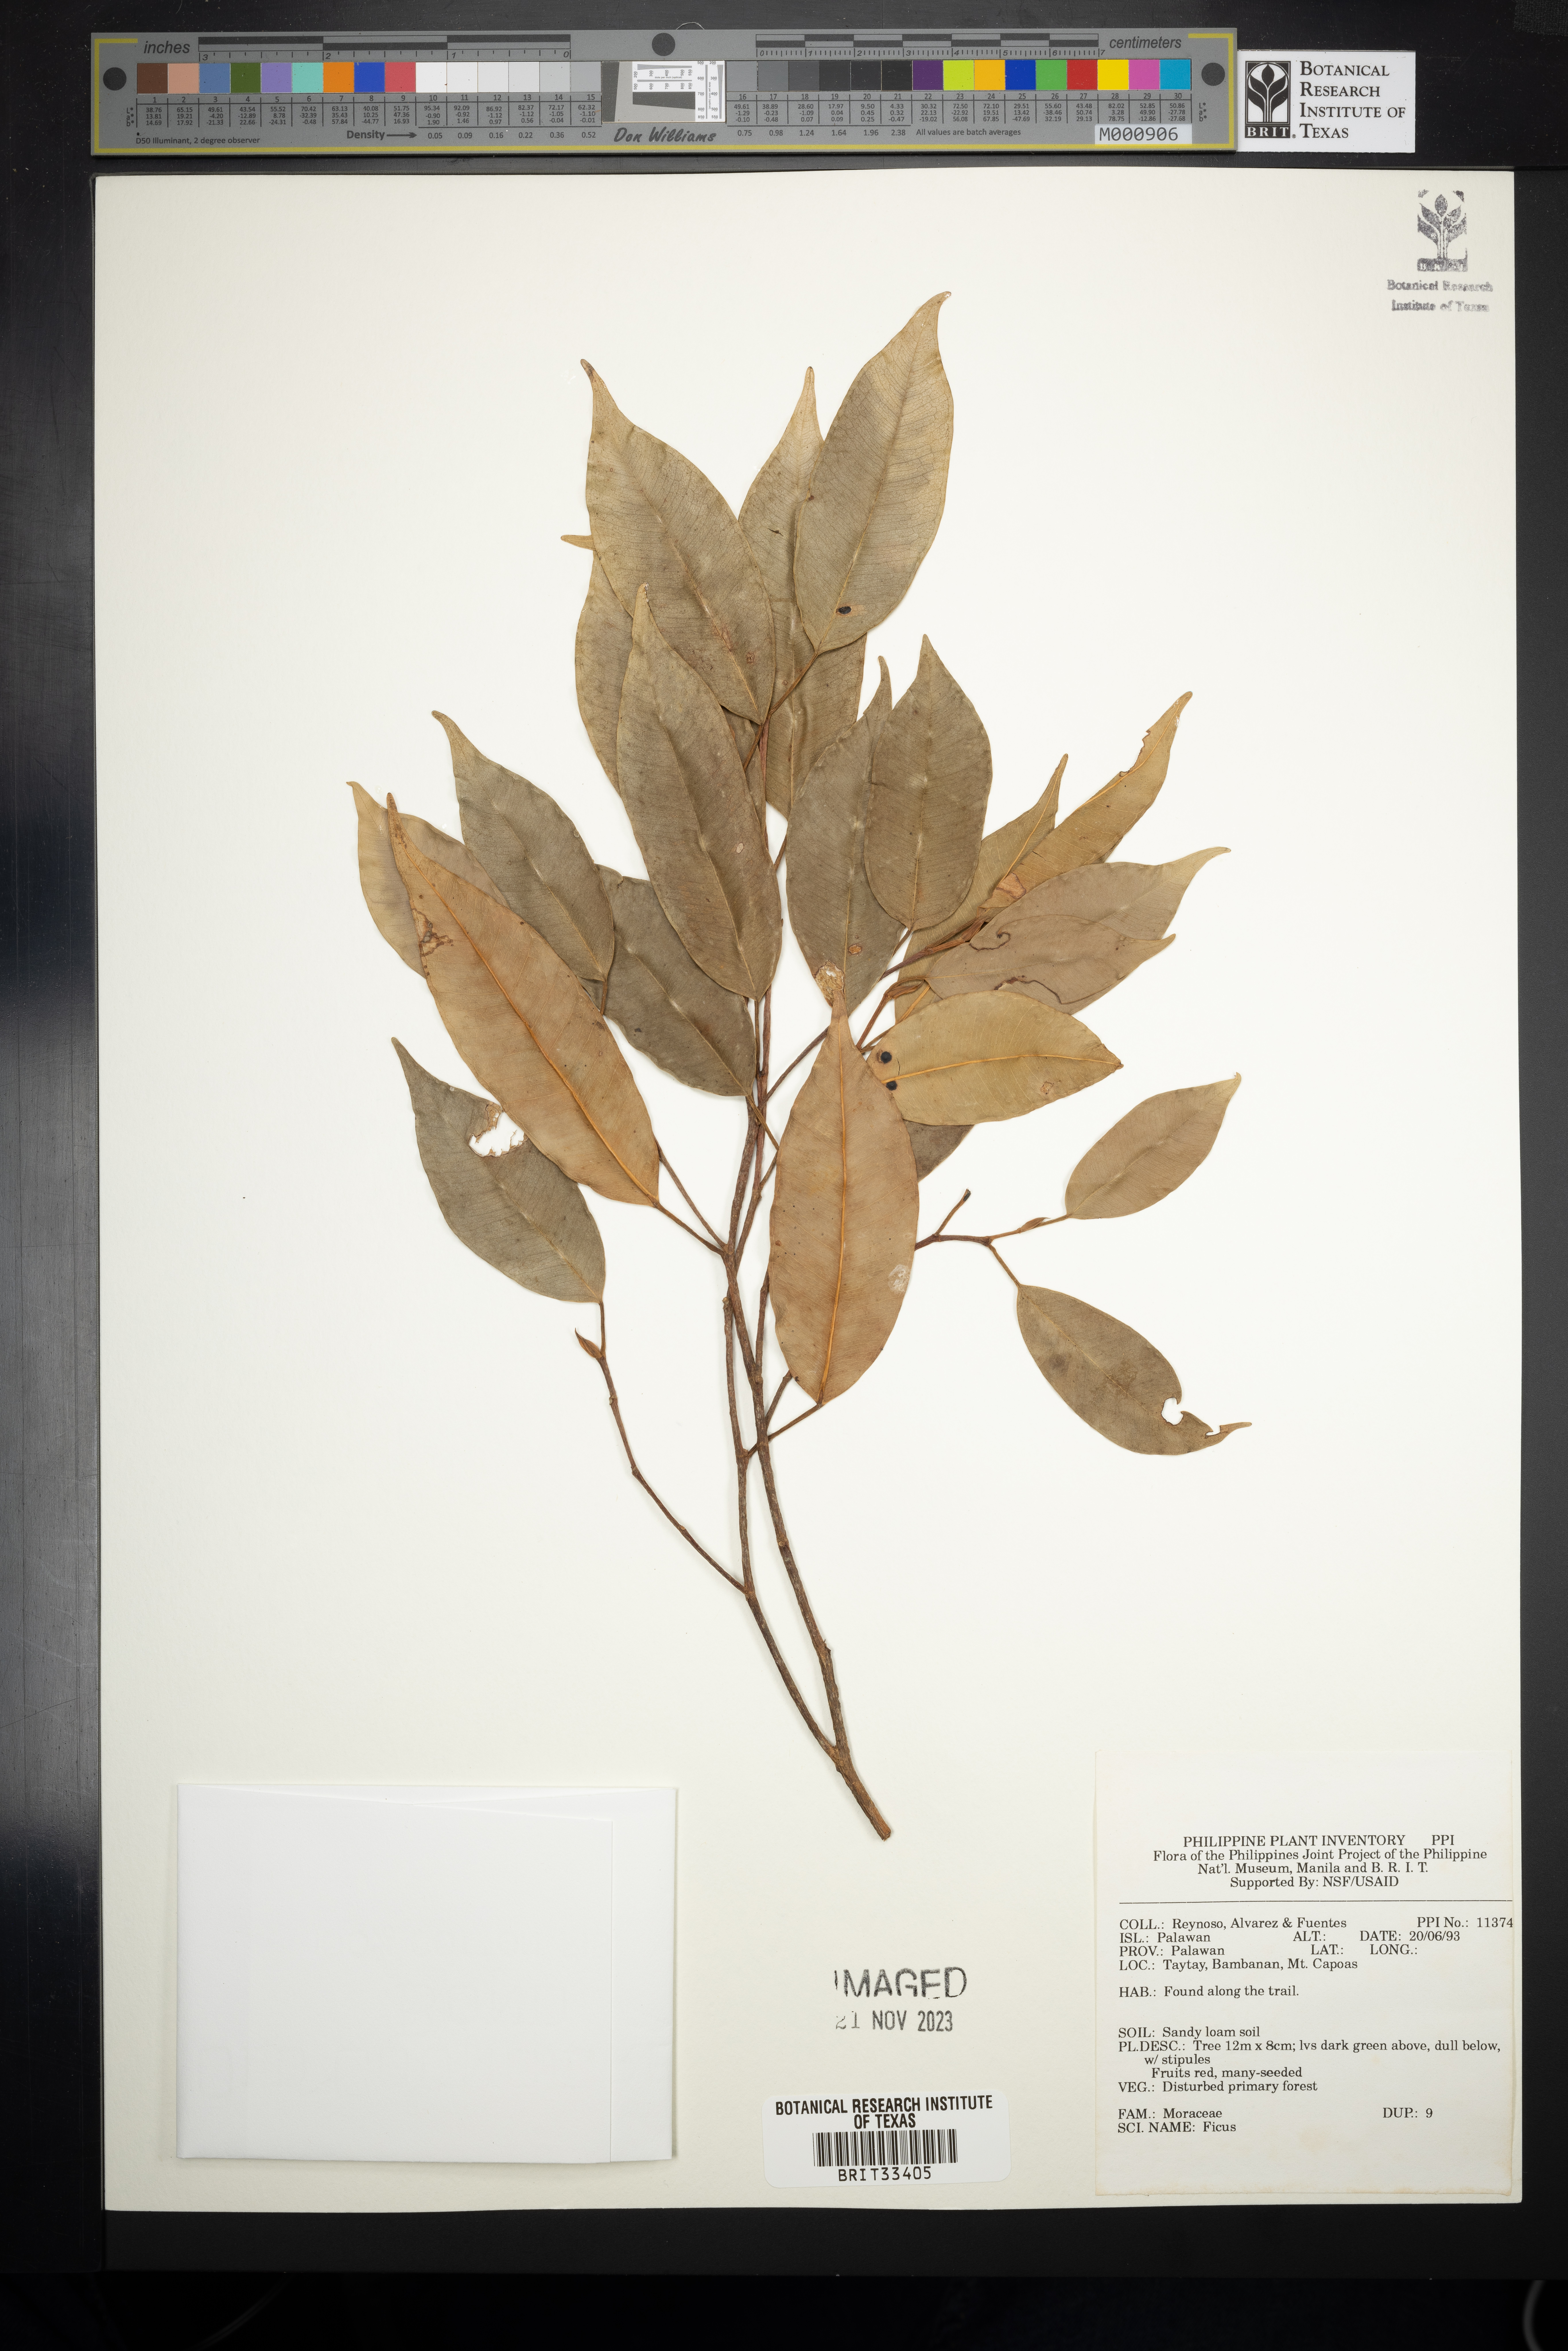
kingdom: Plantae
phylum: Tracheophyta
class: Magnoliopsida
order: Rosales
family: Moraceae
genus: Ficus
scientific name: Ficus
